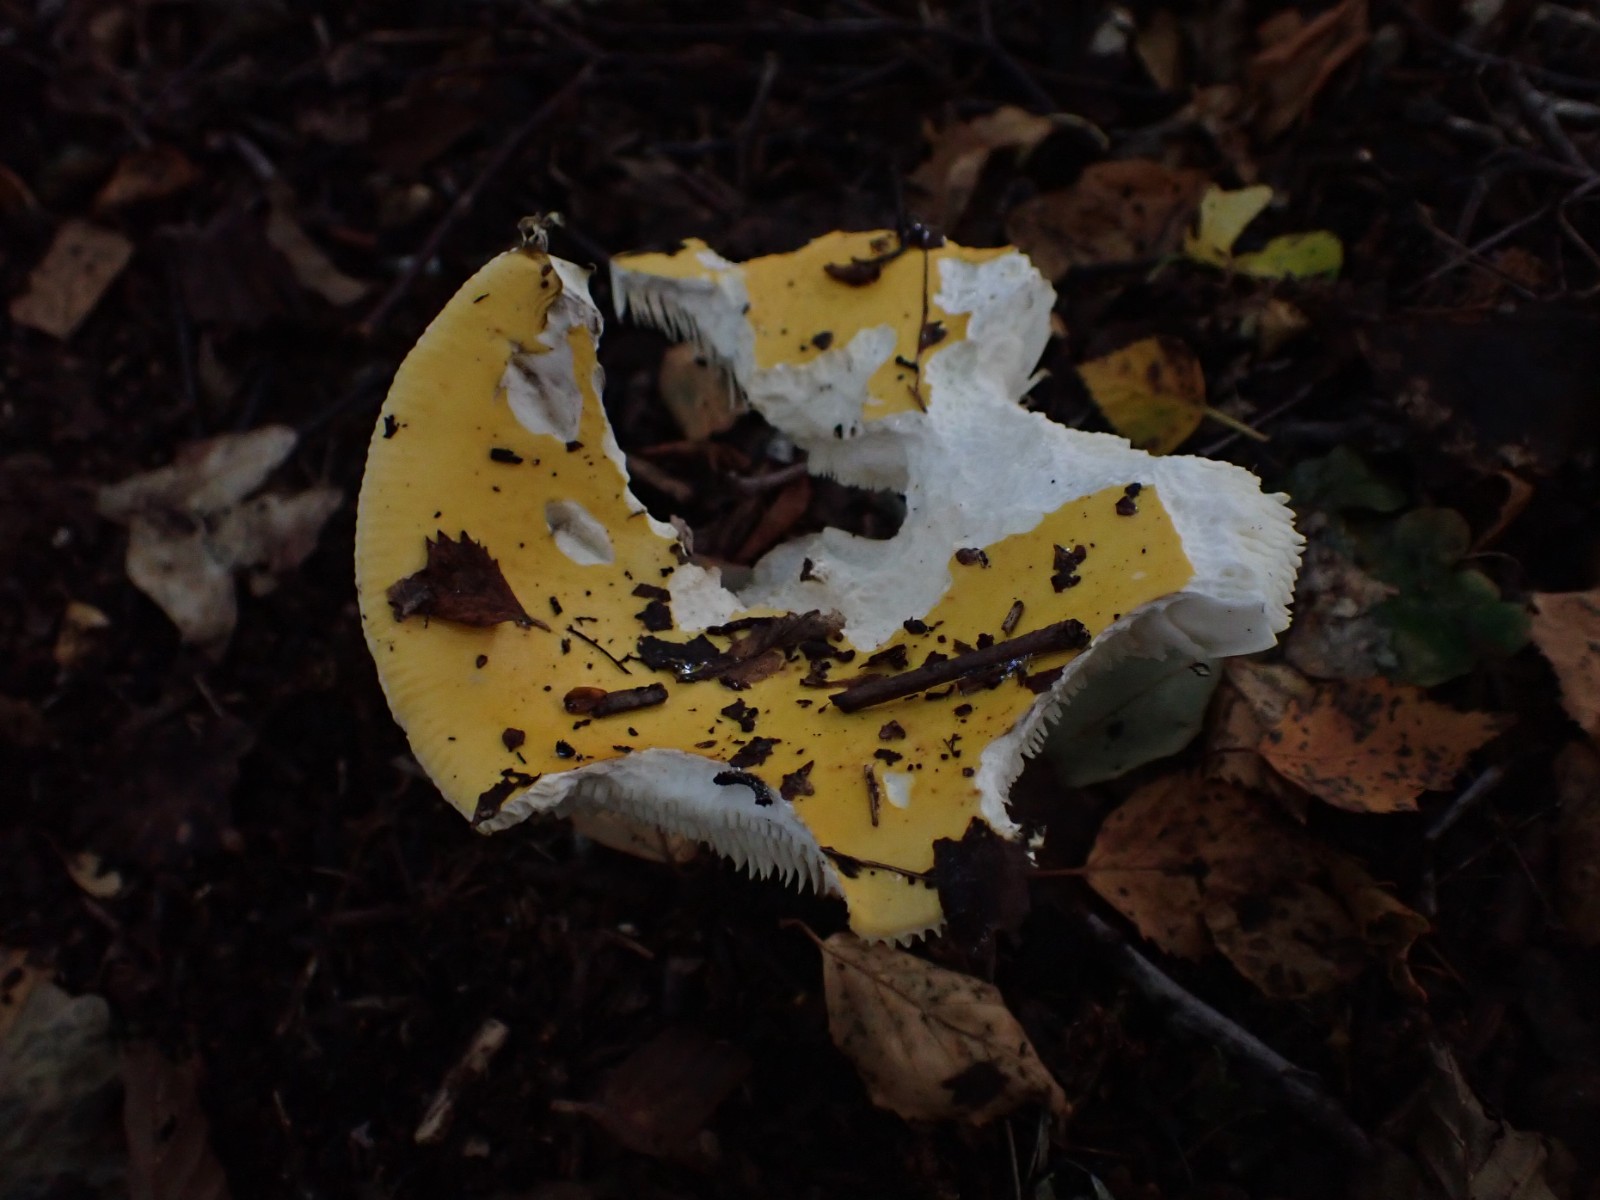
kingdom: Fungi
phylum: Basidiomycota
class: Agaricomycetes
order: Russulales
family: Russulaceae
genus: Russula
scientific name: Russula claroflava
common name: birke-skørhat
